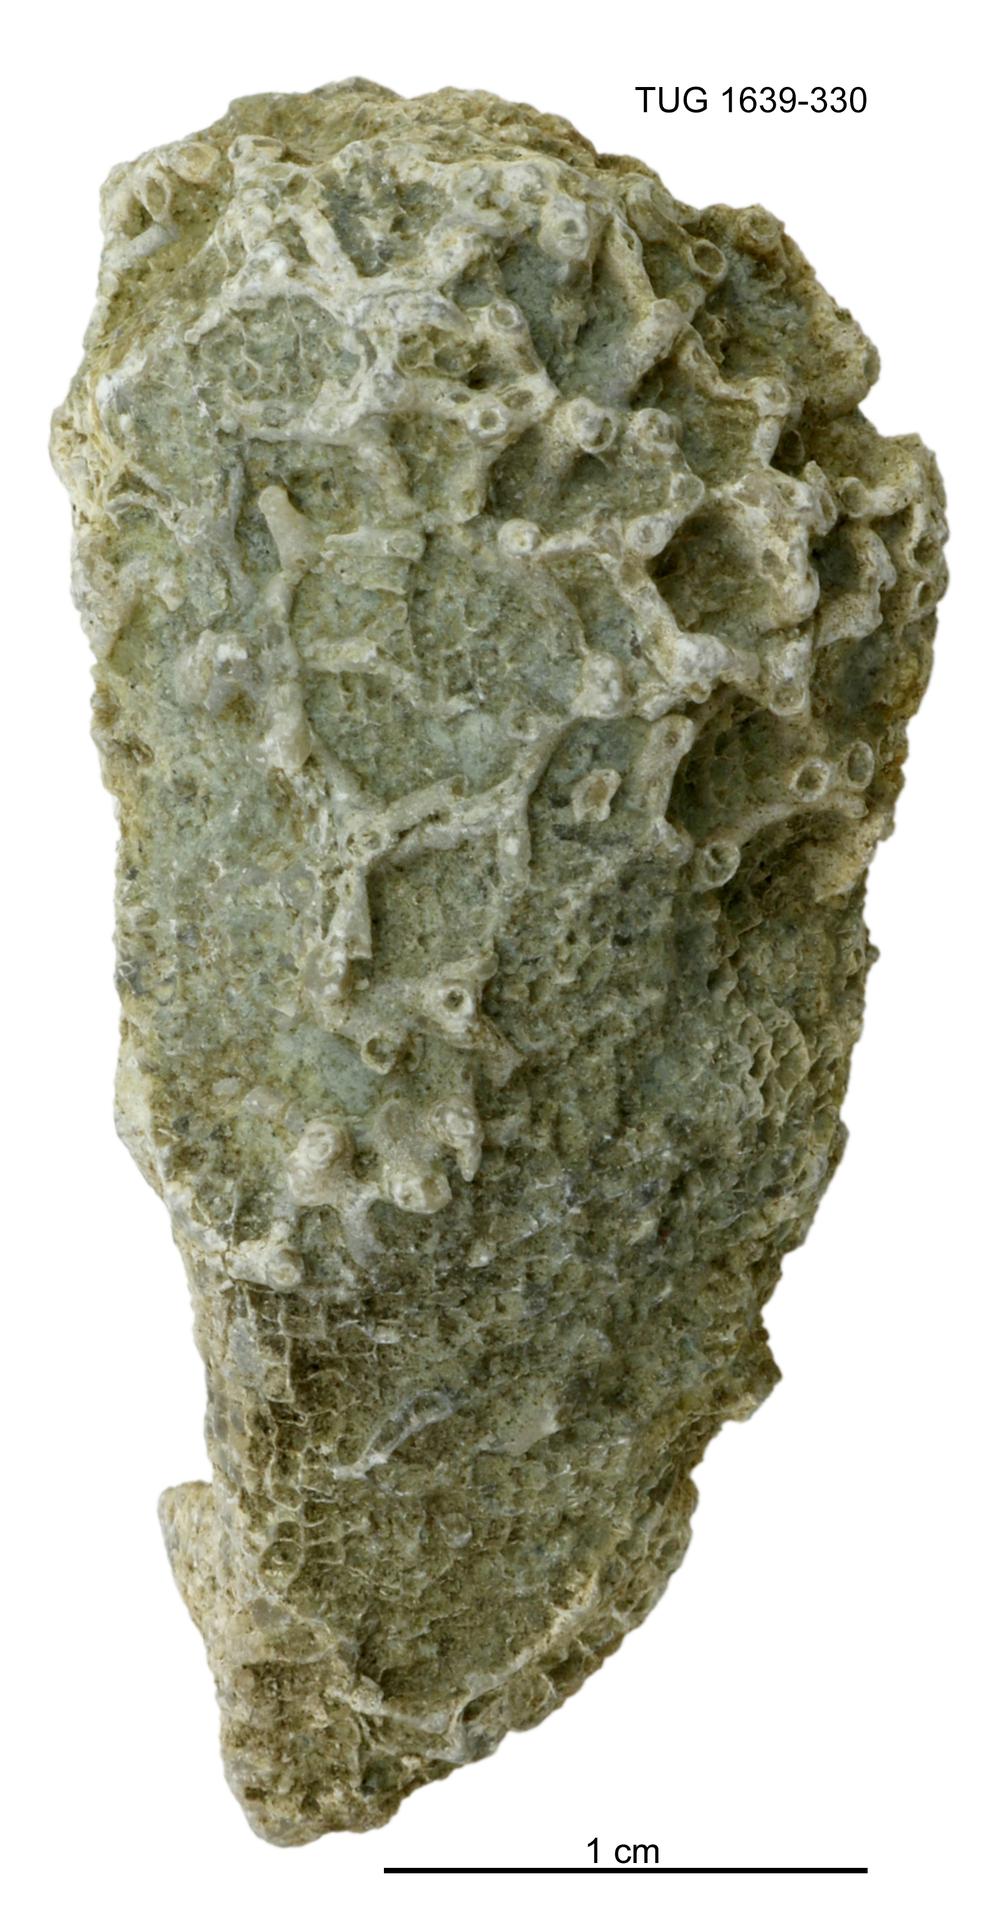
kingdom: Animalia
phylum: Bryozoa
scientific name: Bryozoa
